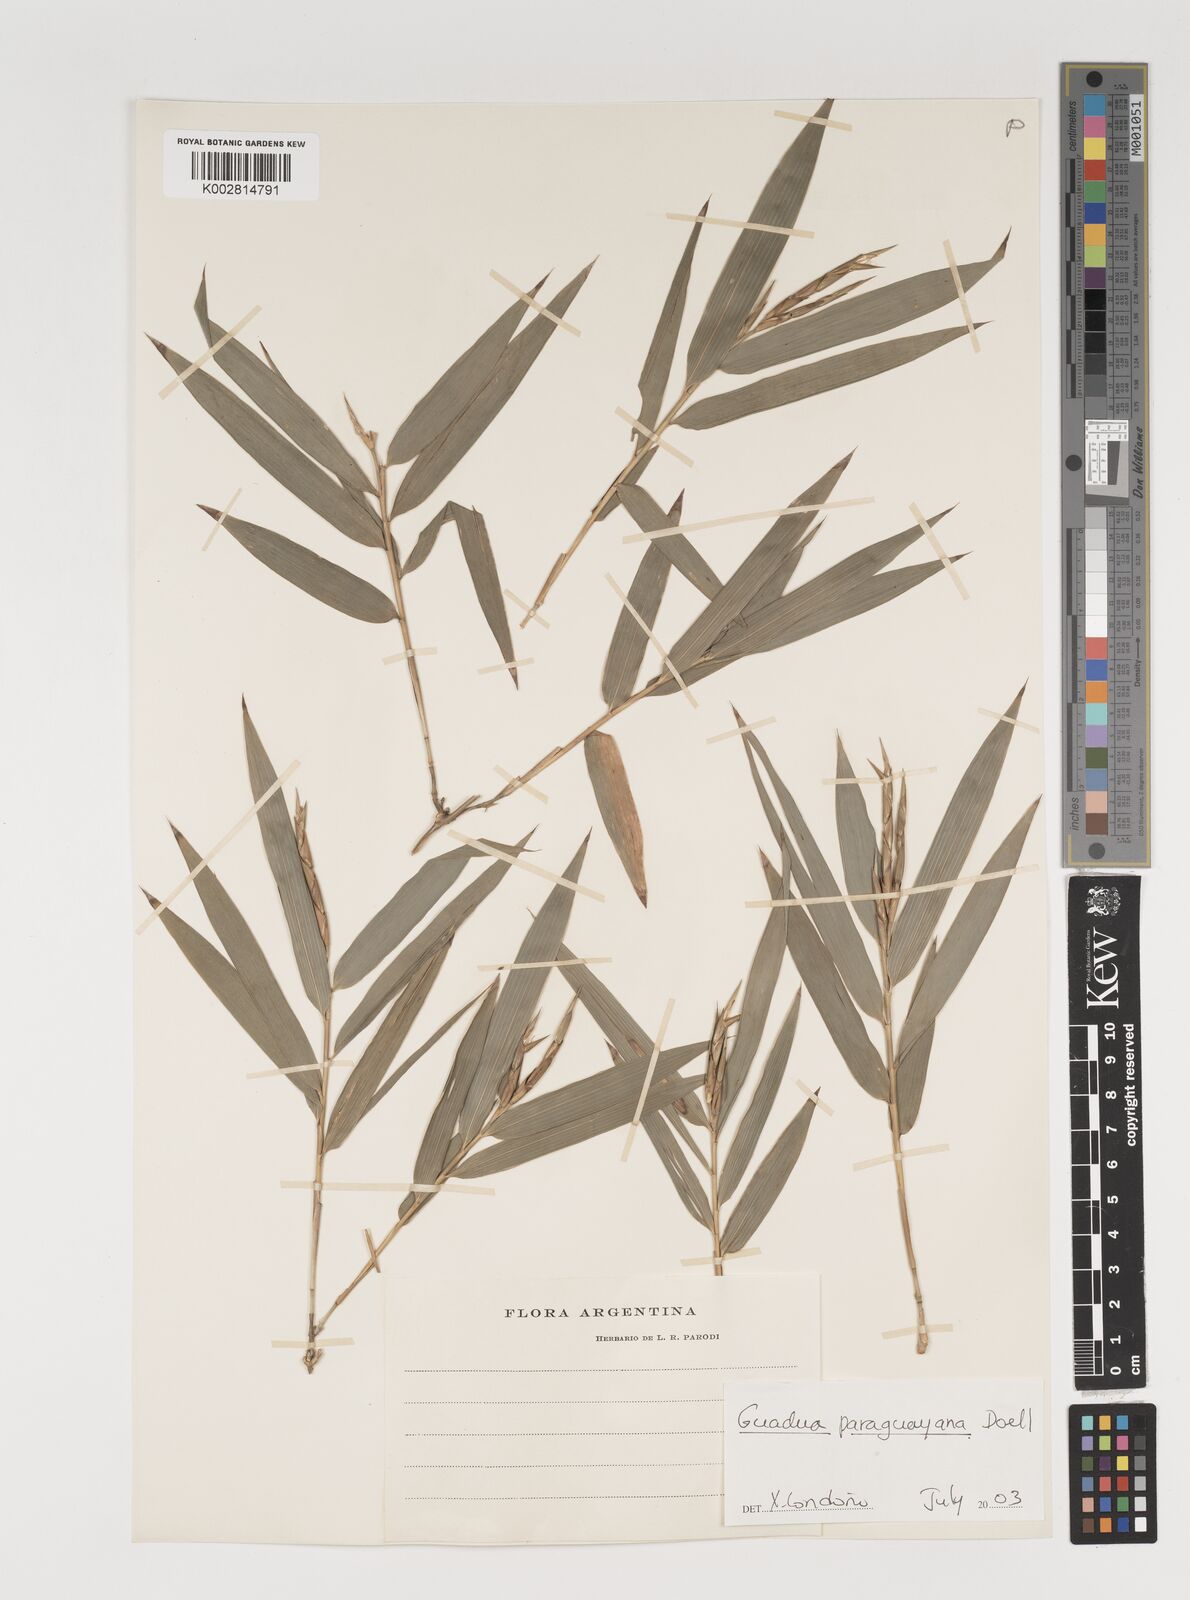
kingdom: Plantae
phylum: Tracheophyta
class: Liliopsida
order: Poales
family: Poaceae
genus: Guadua
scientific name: Guadua paraguayana
